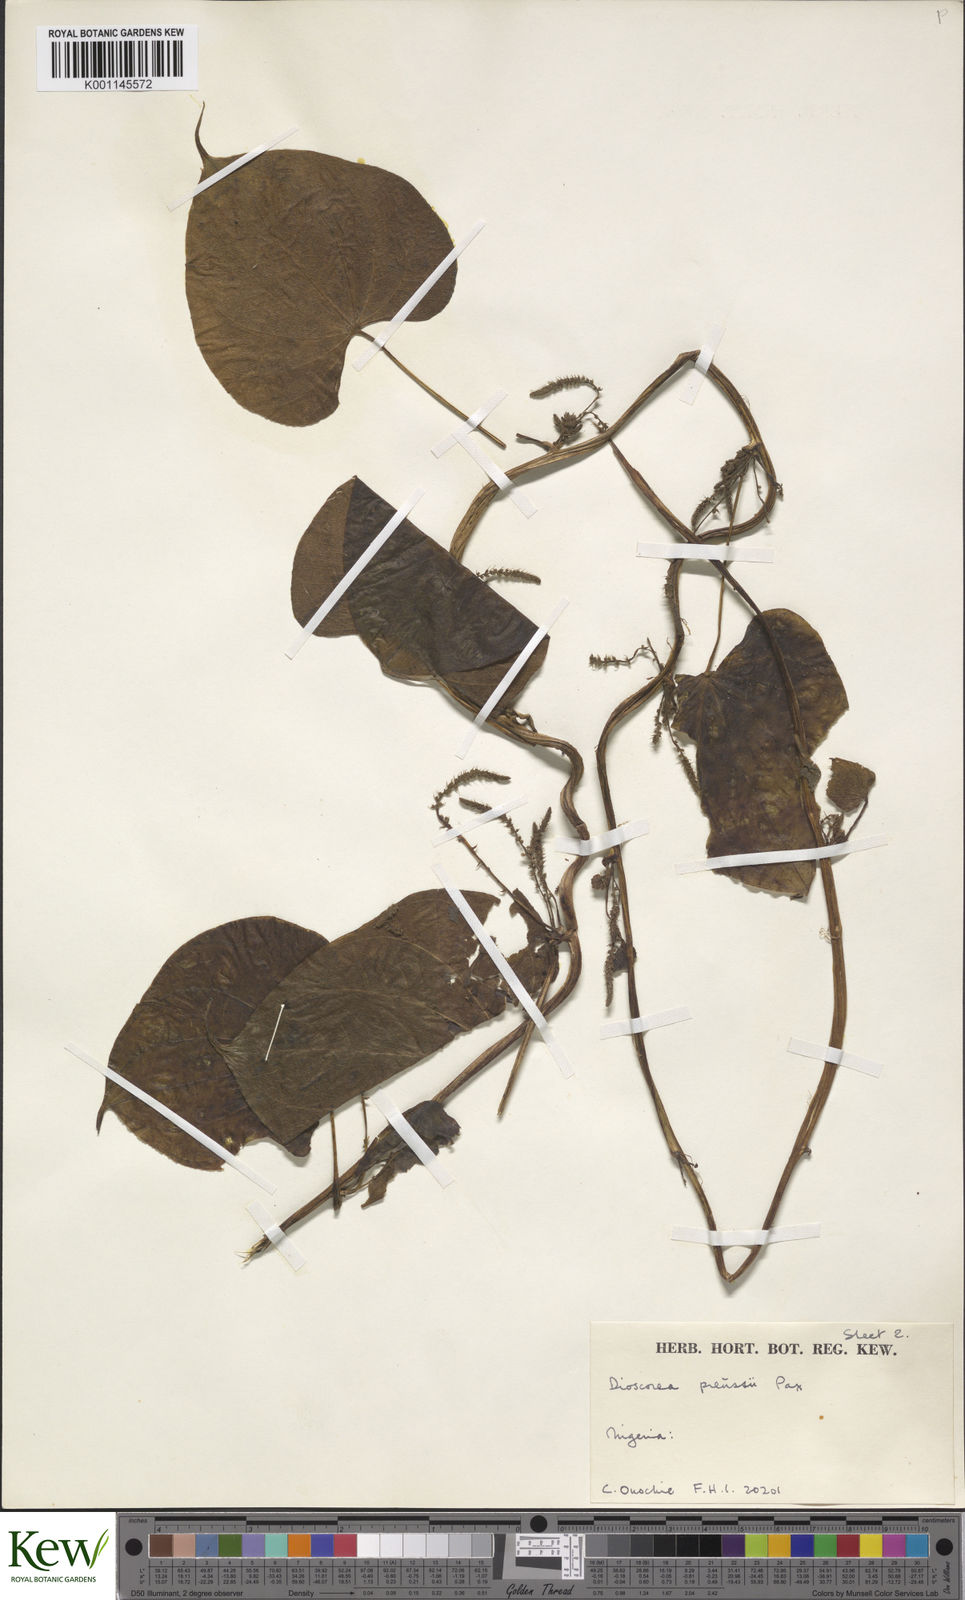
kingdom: Plantae
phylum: Tracheophyta
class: Liliopsida
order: Dioscoreales
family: Dioscoreaceae
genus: Dioscorea
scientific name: Dioscorea preussii
